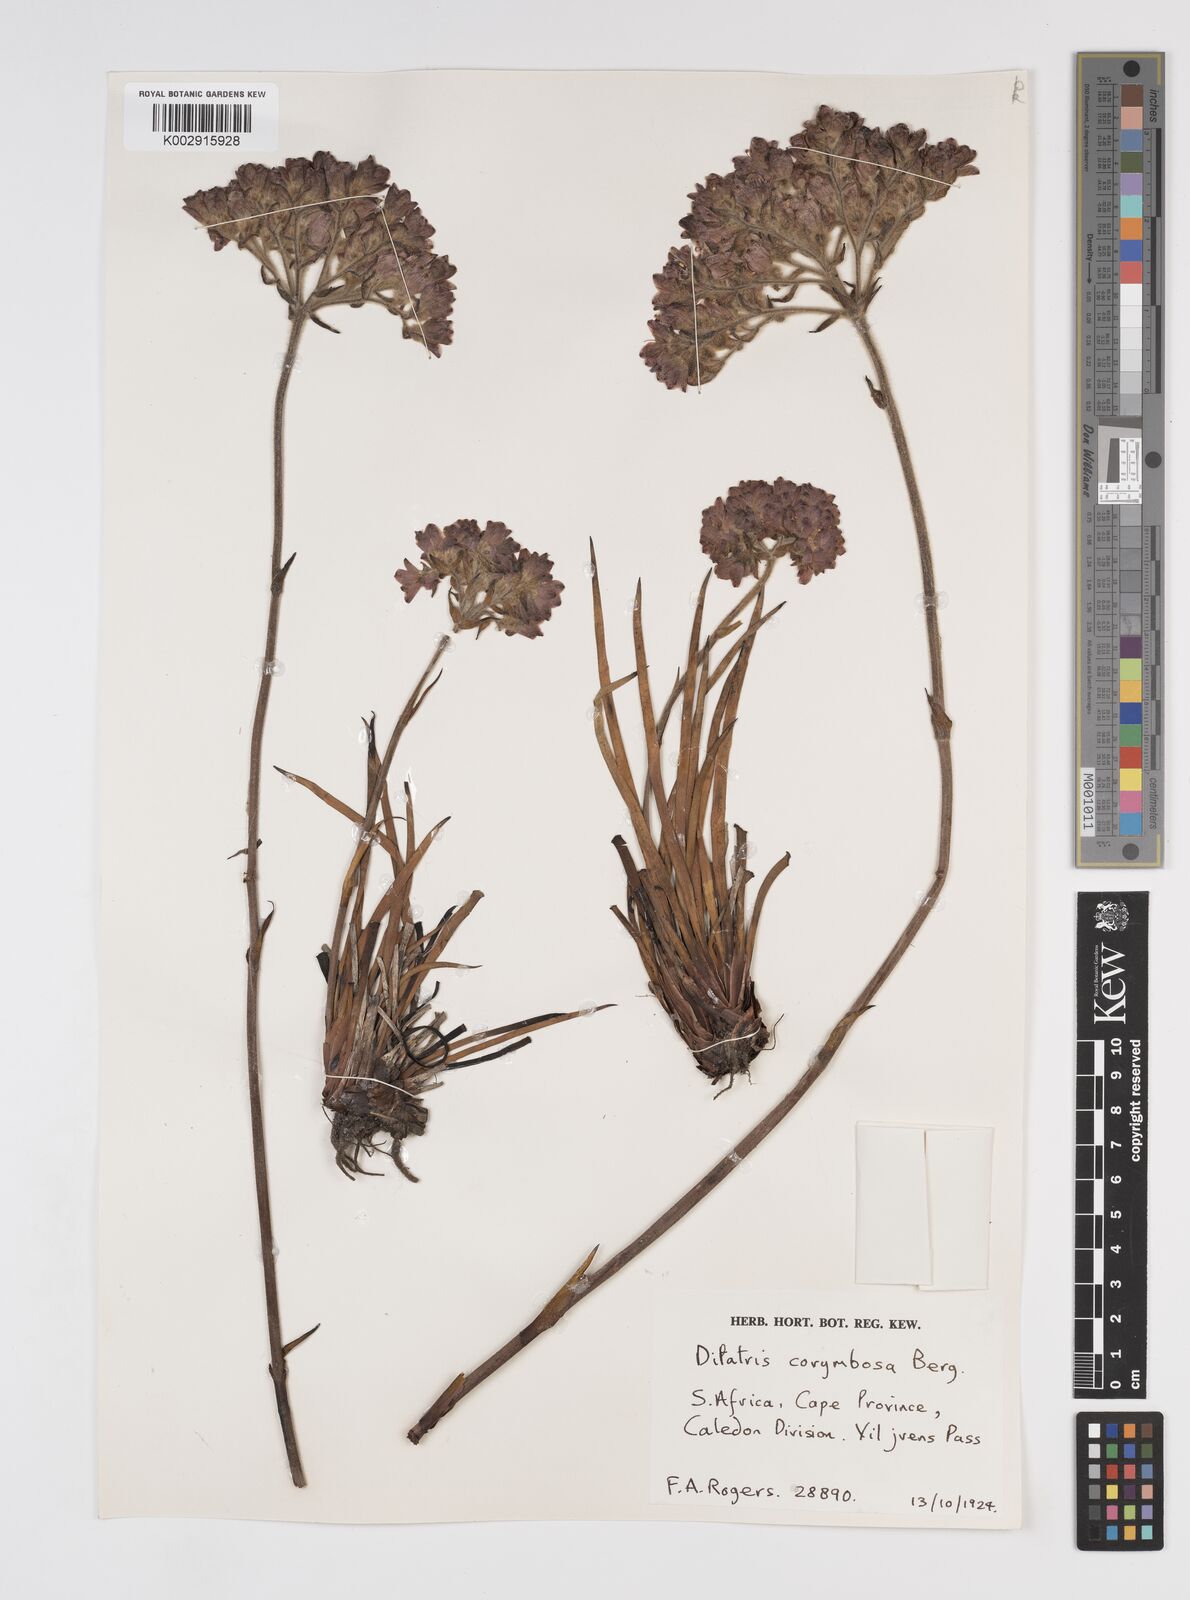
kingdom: Plantae
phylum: Tracheophyta
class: Liliopsida
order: Commelinales
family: Haemodoraceae
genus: Dilatris
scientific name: Dilatris corymbosa
